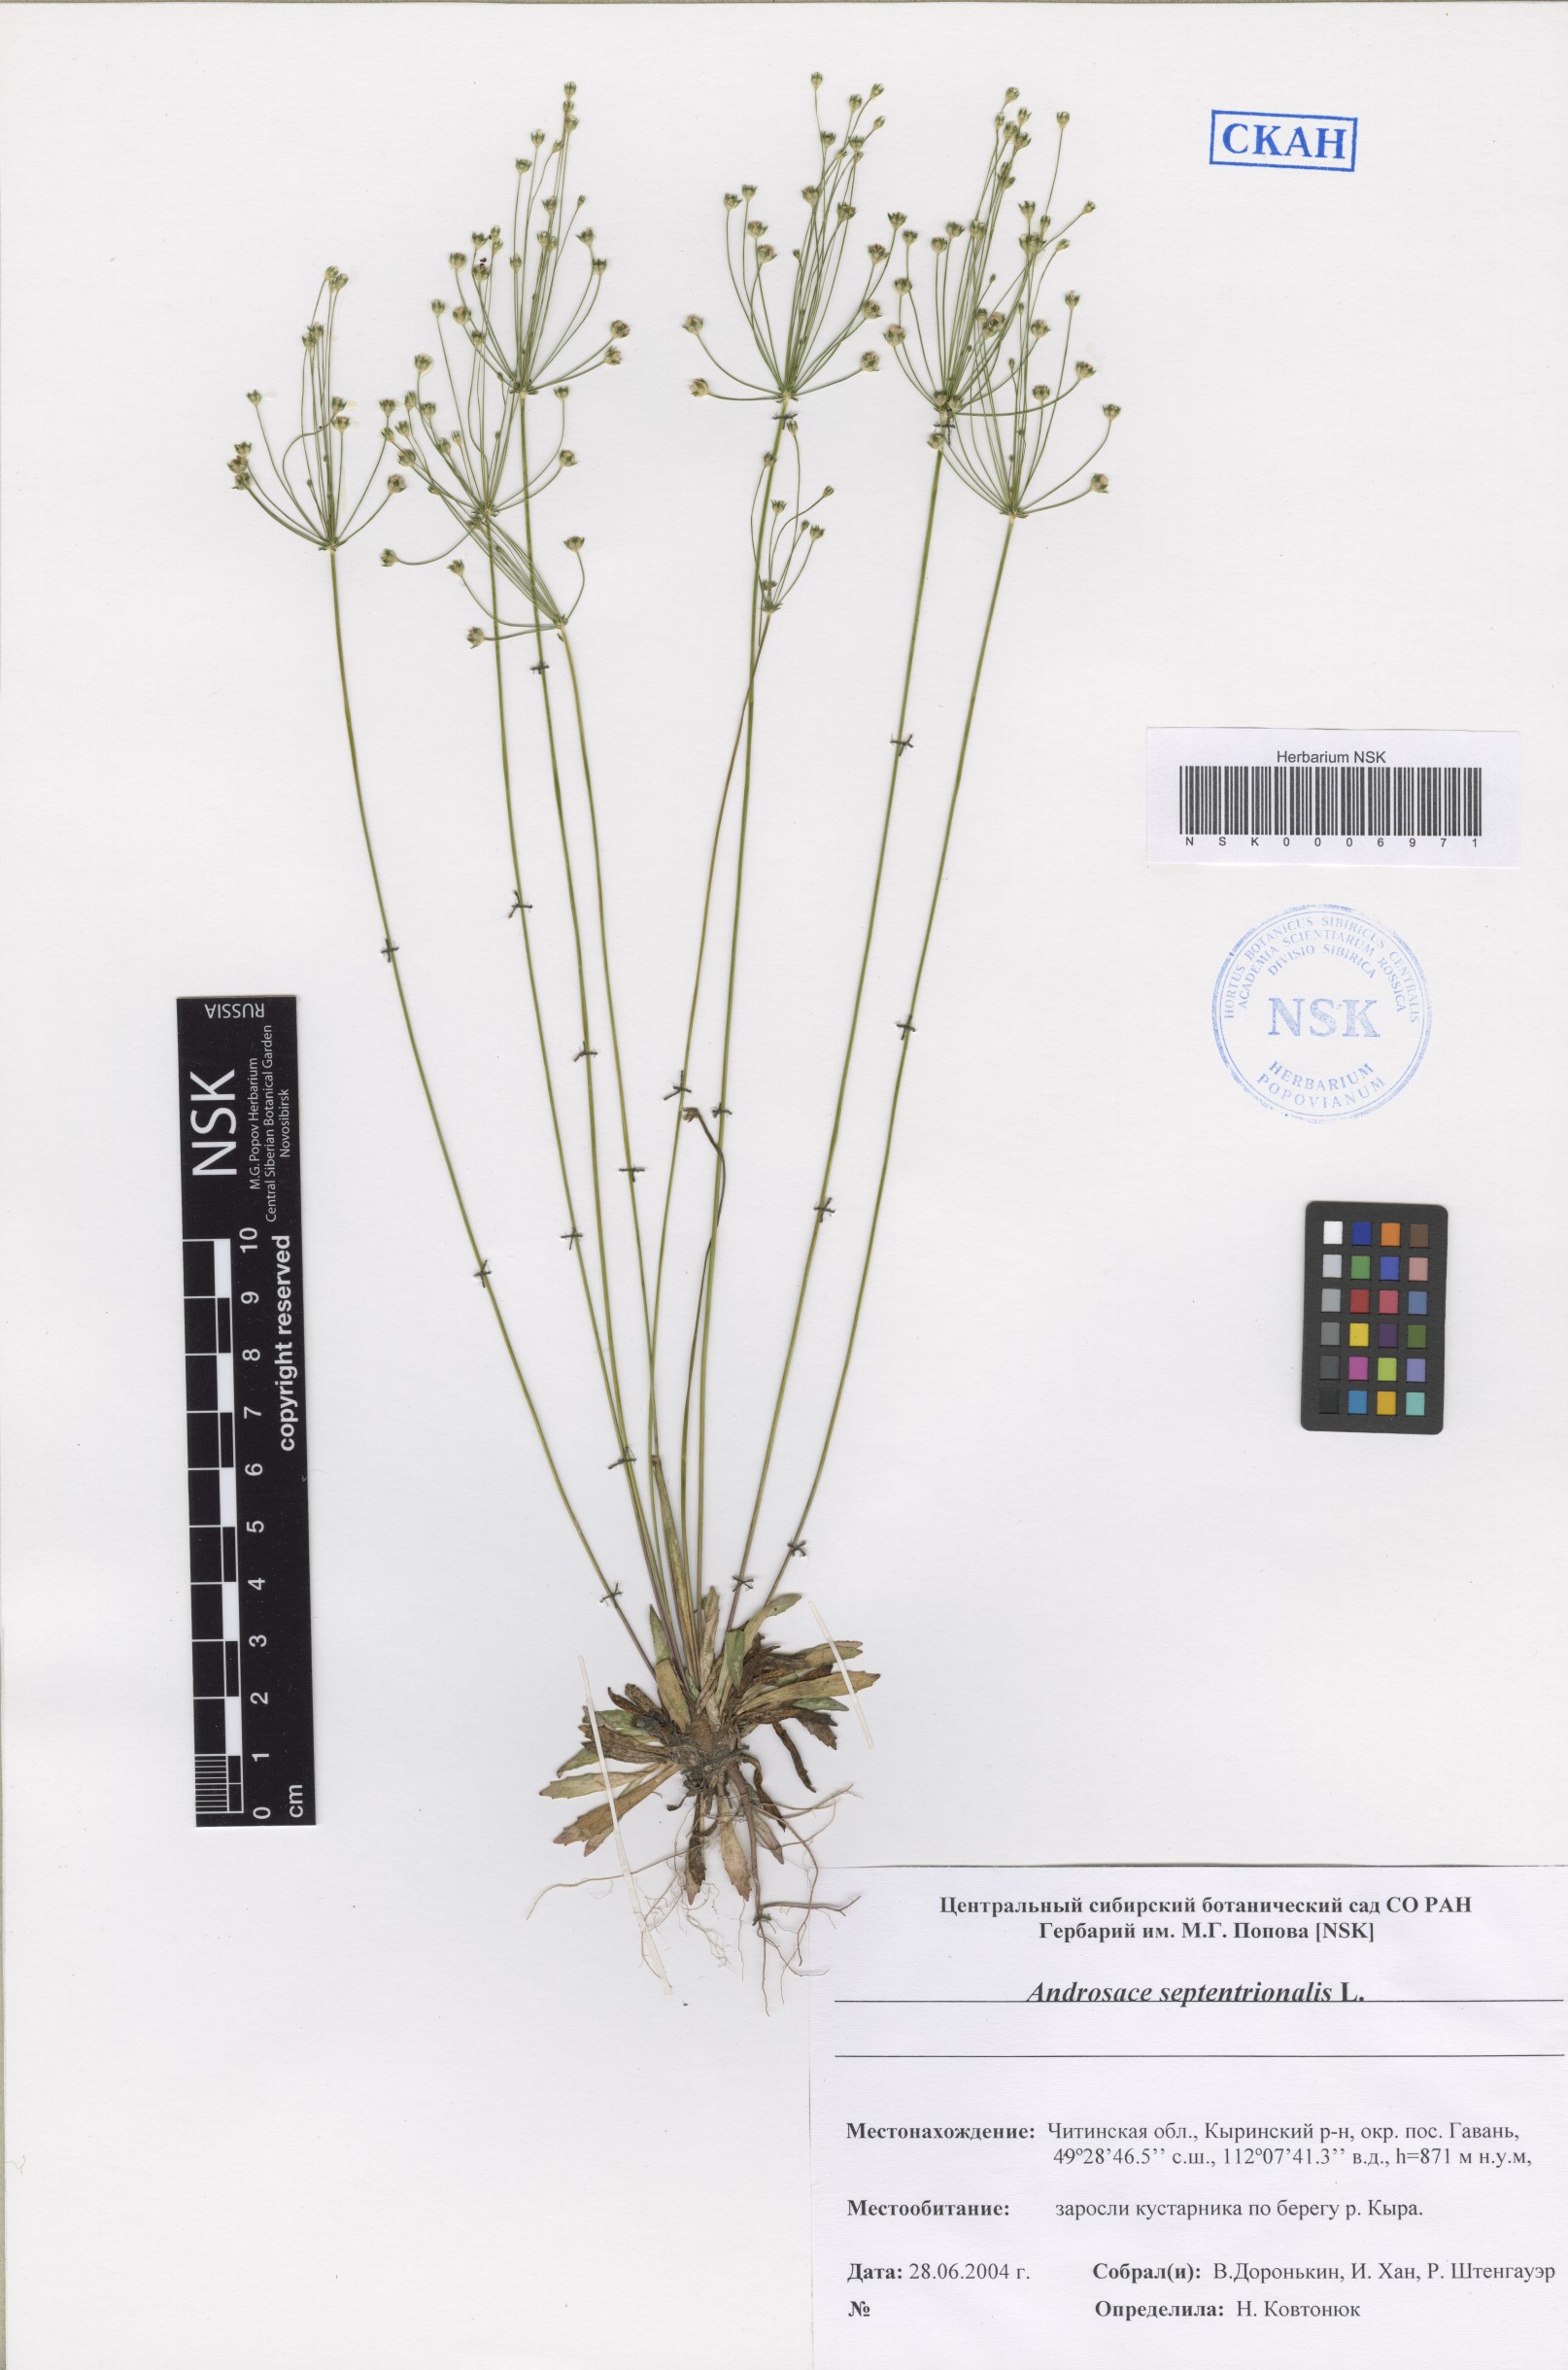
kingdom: Plantae
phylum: Tracheophyta
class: Magnoliopsida
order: Ericales
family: Primulaceae
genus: Androsace
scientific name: Androsace septentrionalis
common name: Hairy northern fairy-candelabra
